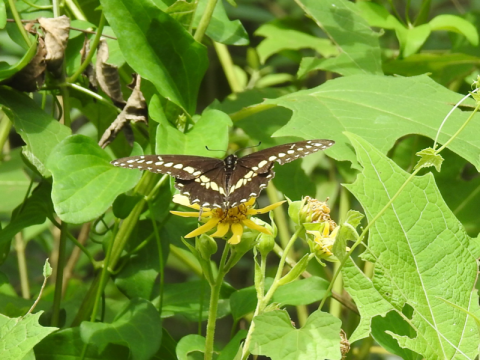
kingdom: Animalia
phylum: Arthropoda
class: Insecta
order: Lepidoptera
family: Papilionidae
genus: Papilio
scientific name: Papilio polyxenes
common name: Black Swallowtail
